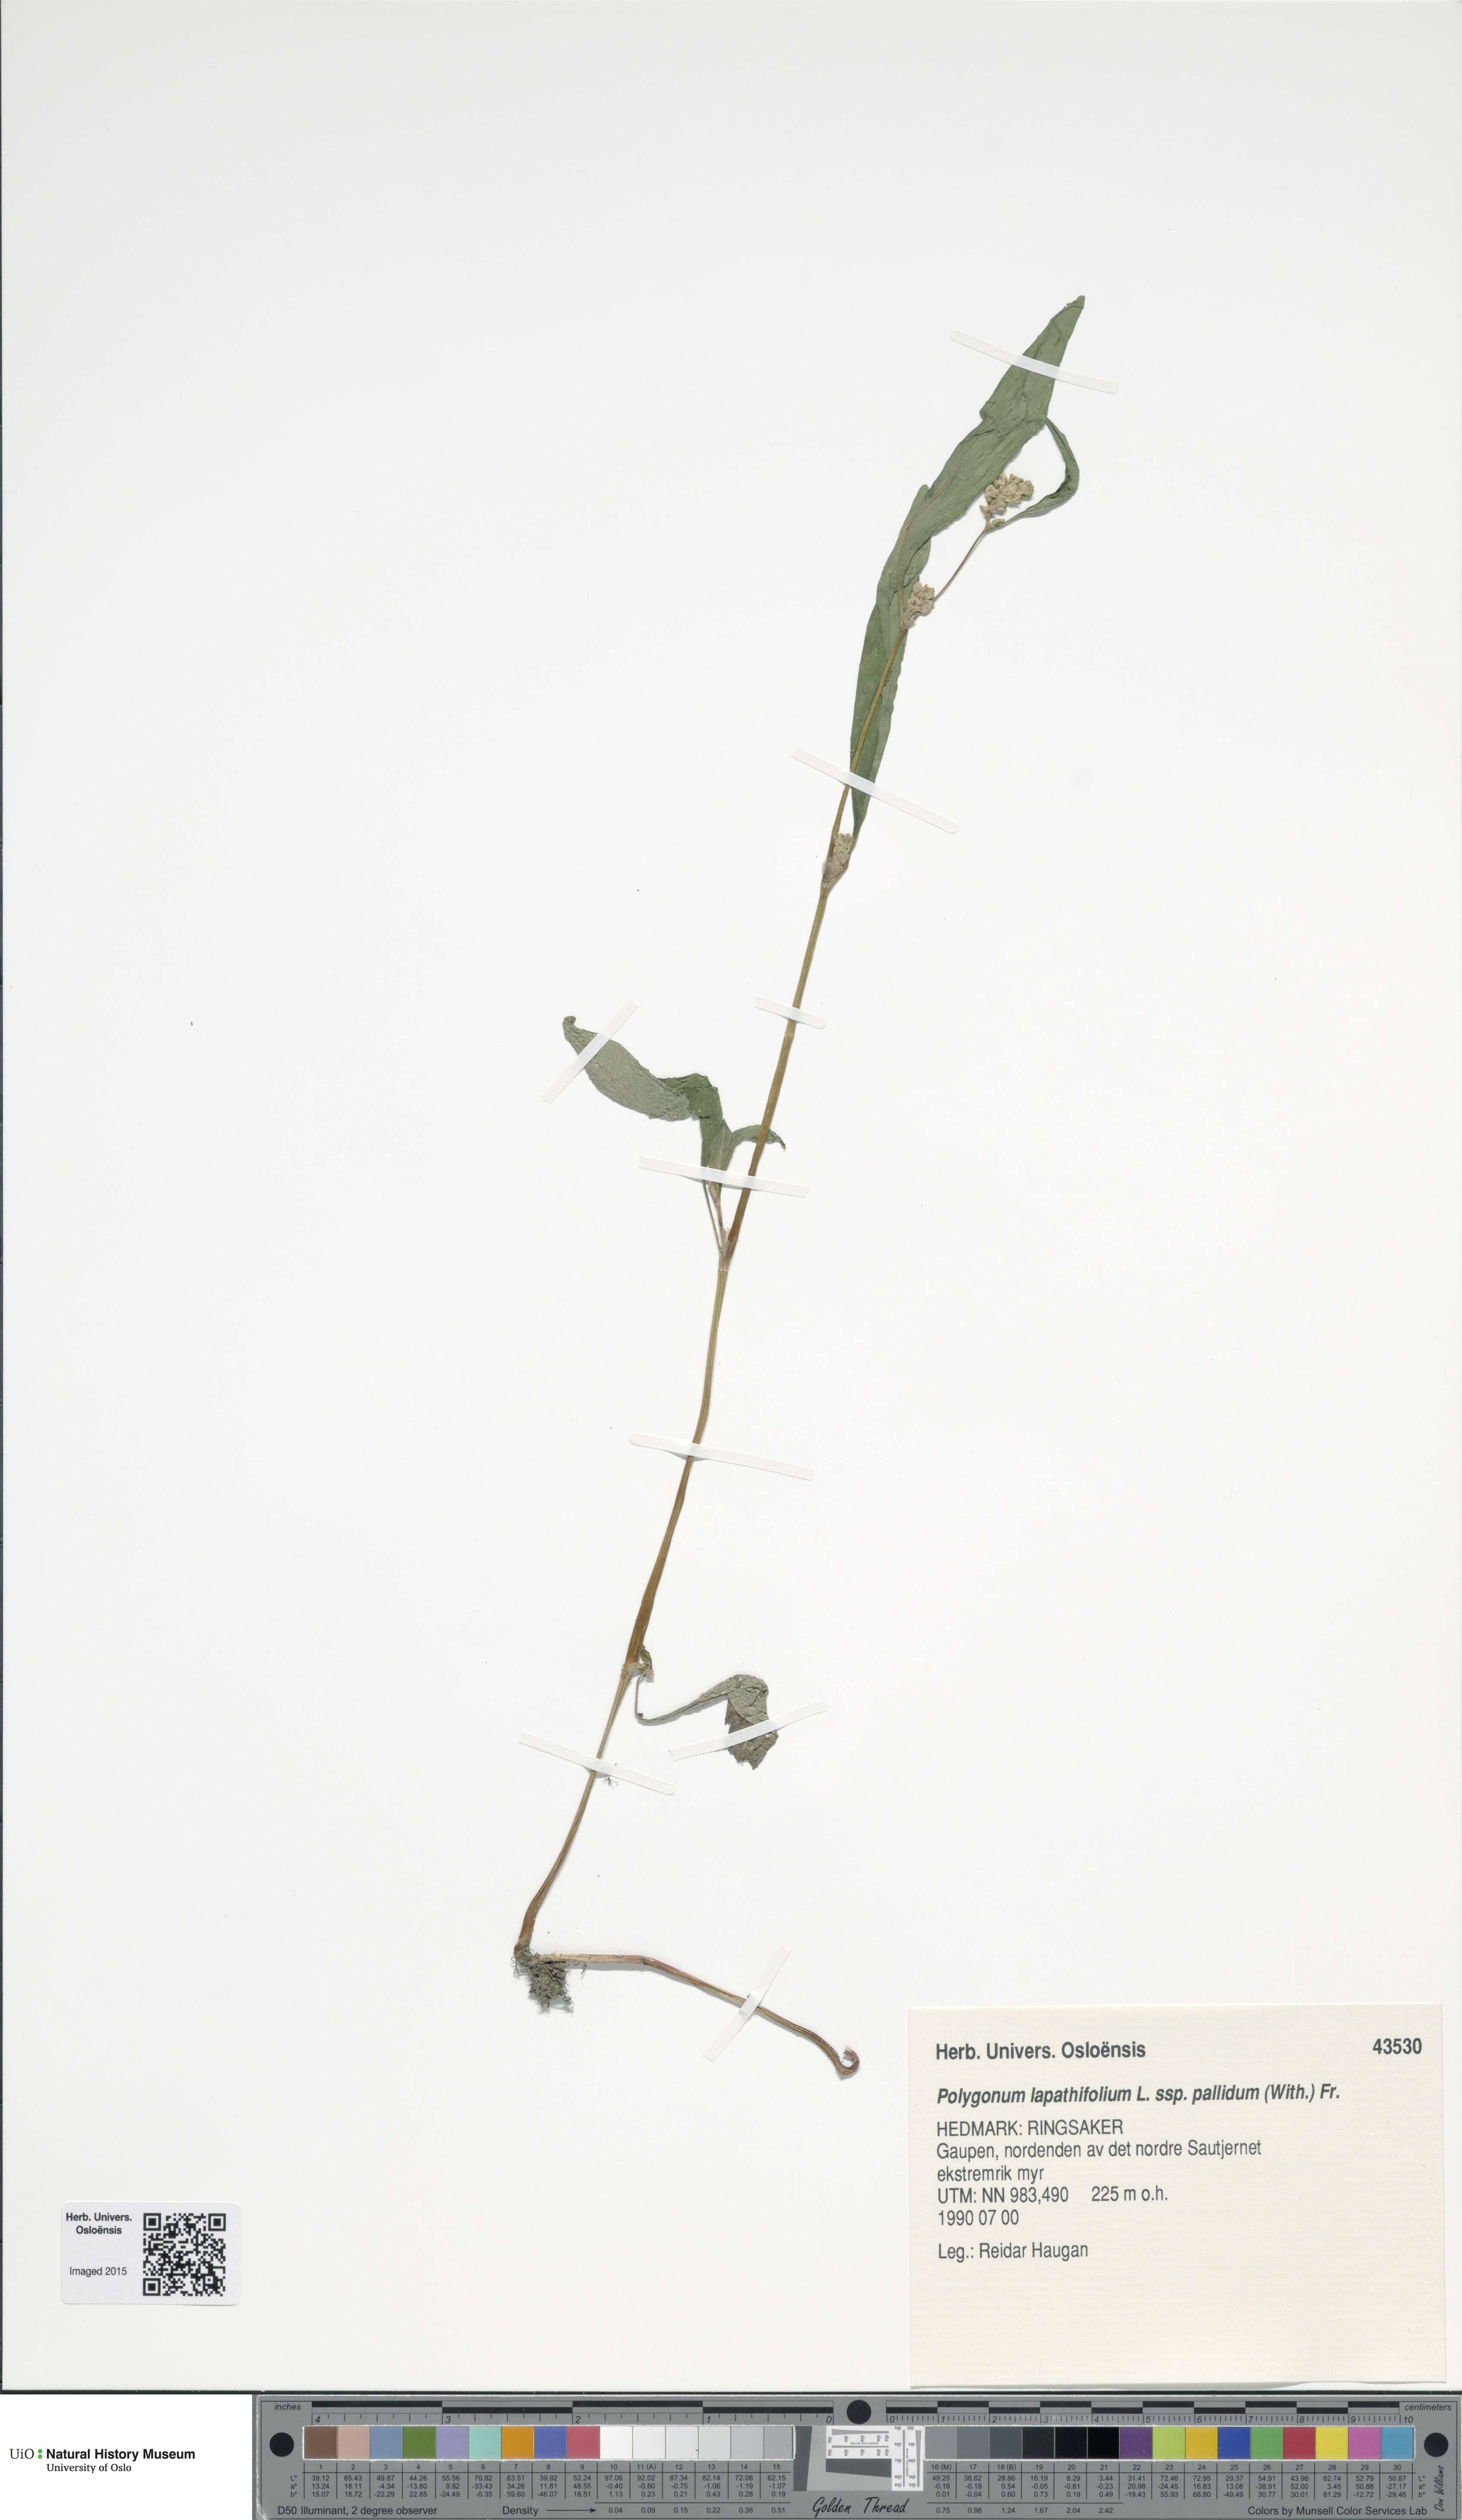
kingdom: Plantae
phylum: Tracheophyta
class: Magnoliopsida
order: Caryophyllales
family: Polygonaceae
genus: Persicaria
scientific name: Persicaria lapathifolia
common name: Curlytop knotweed
